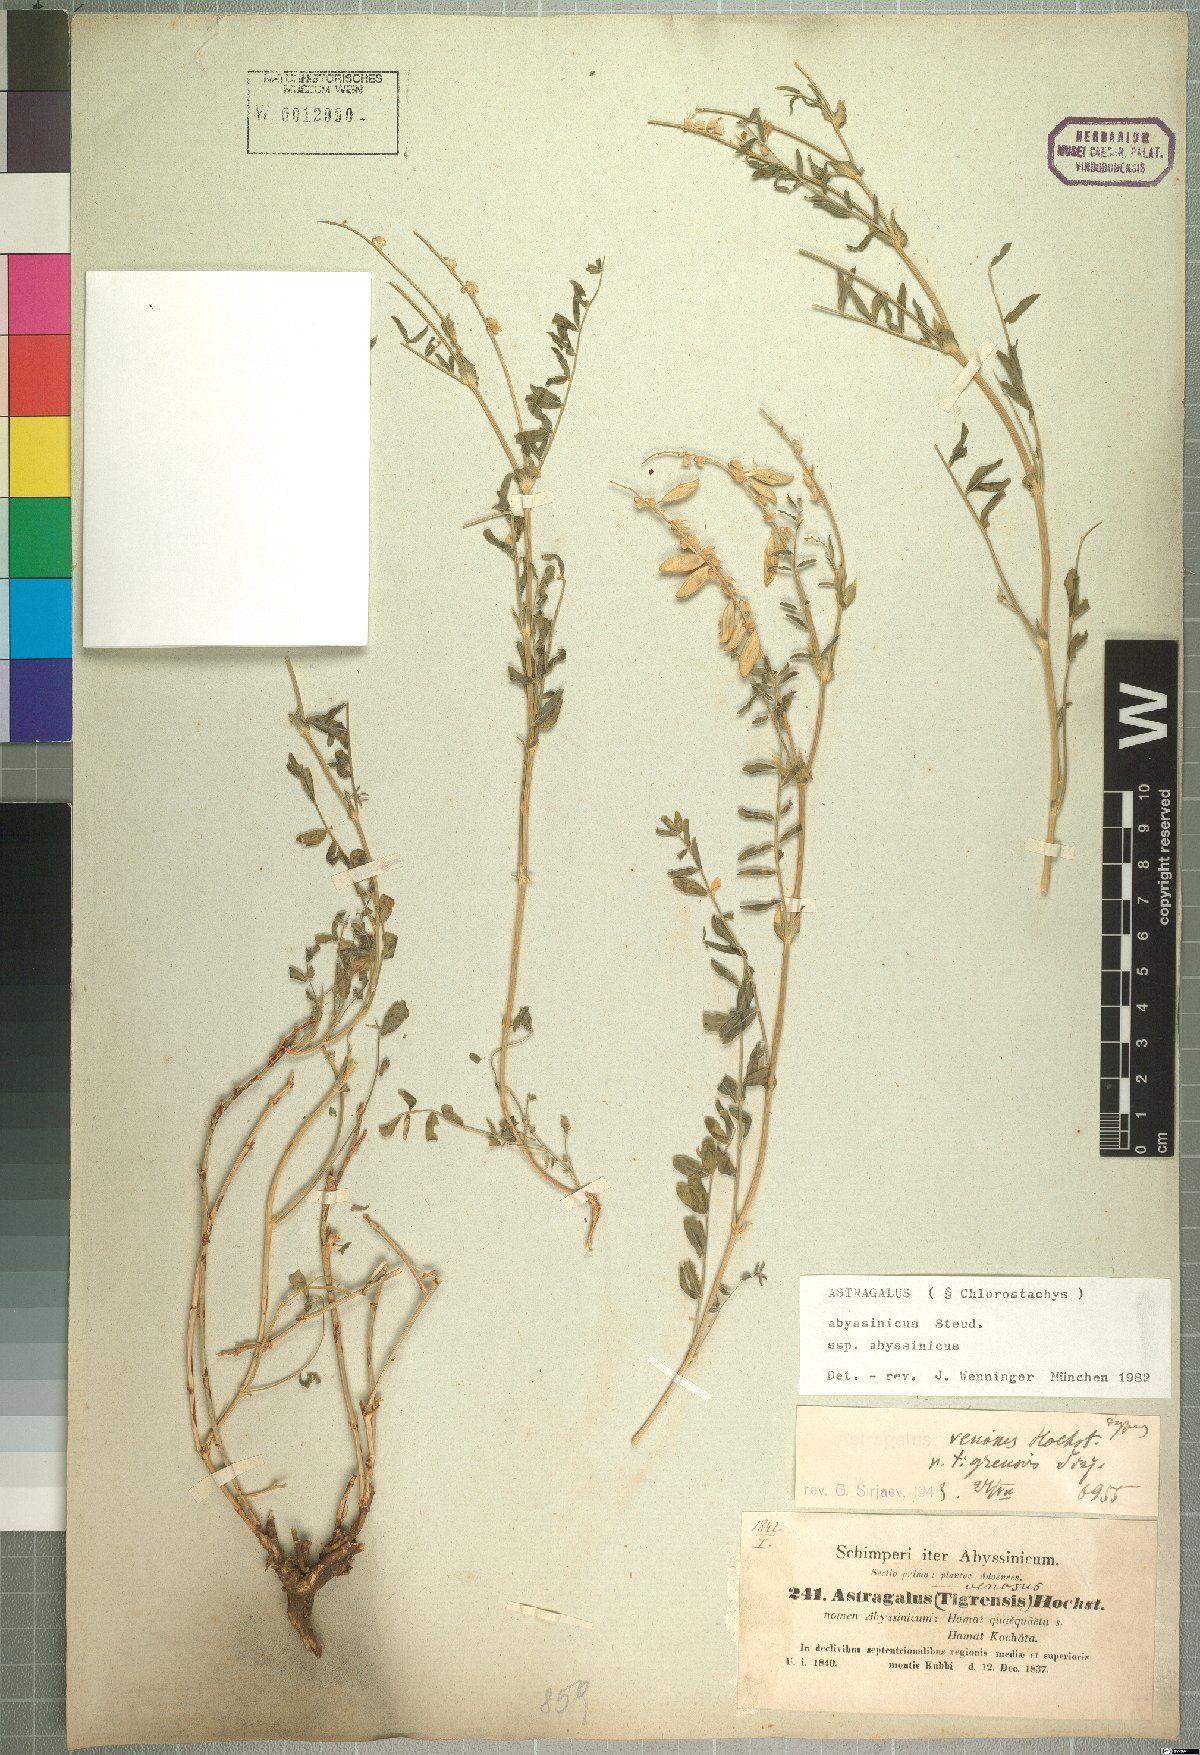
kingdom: Plantae
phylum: Tracheophyta
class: Magnoliopsida
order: Fabales
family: Fabaceae
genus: Astragalus
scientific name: Astragalus atropilosulus
